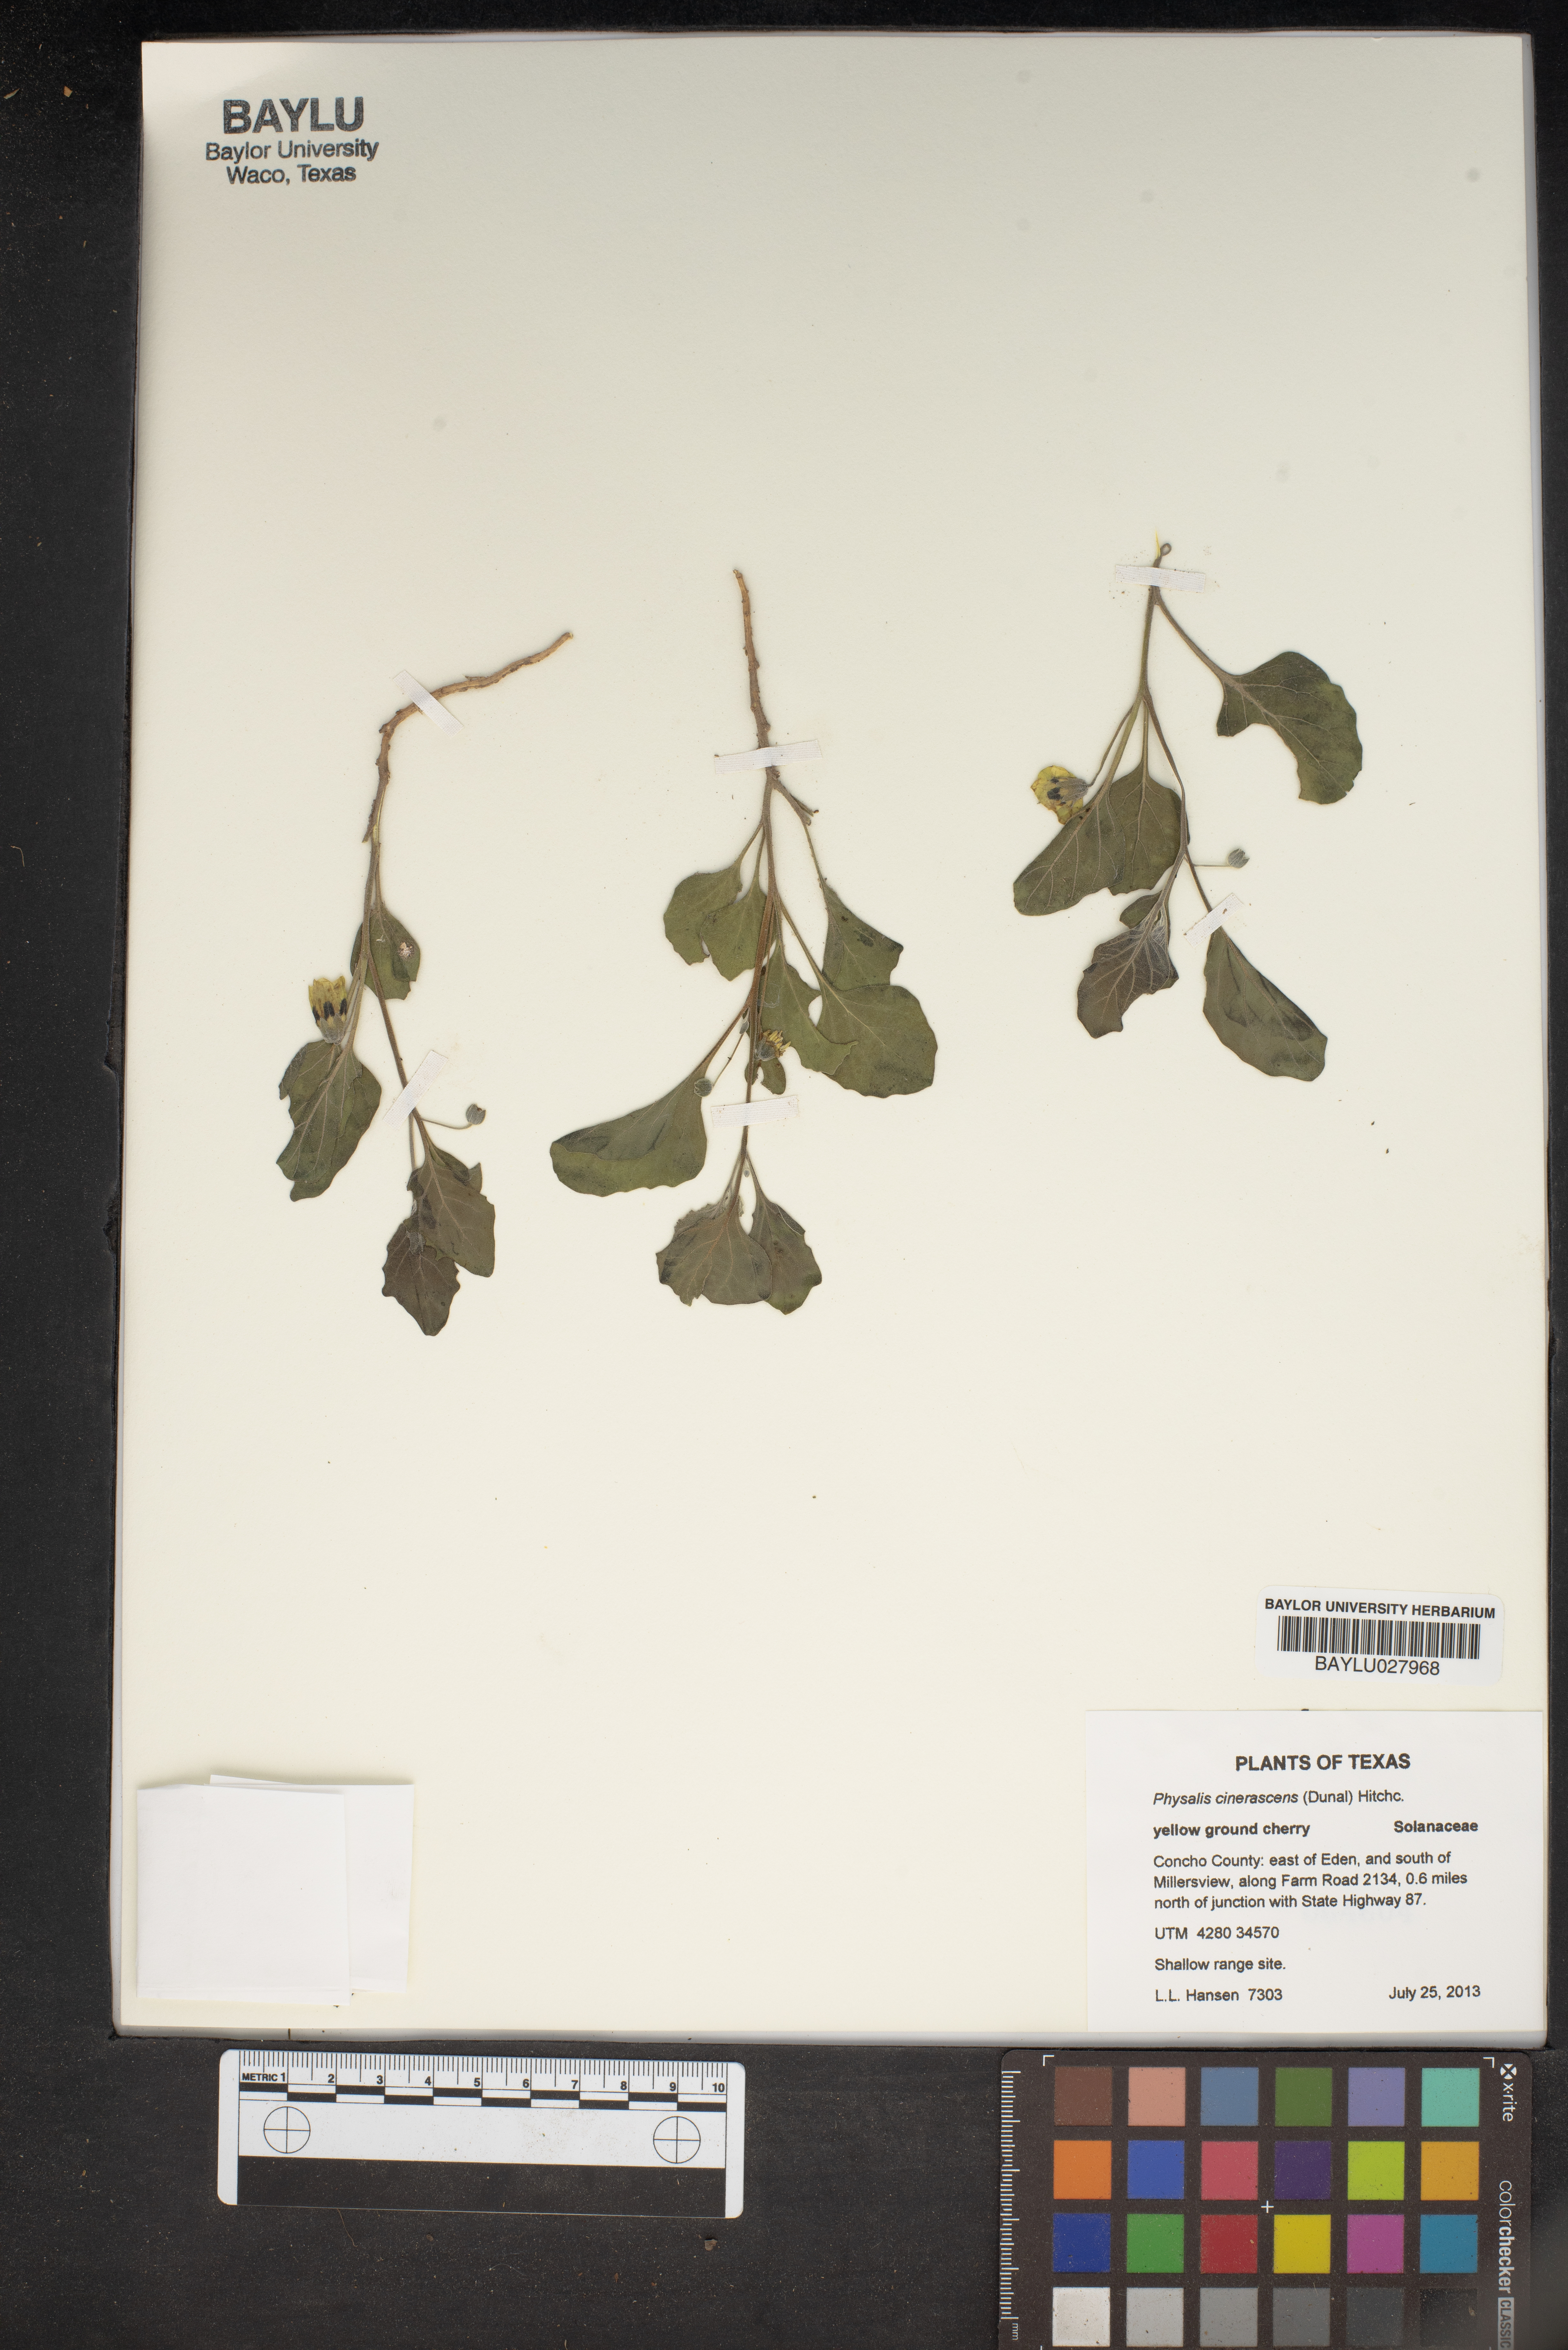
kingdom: Plantae
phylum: Tracheophyta
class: Magnoliopsida
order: Solanales
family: Solanaceae
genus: Physalis
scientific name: Physalis cinerascens
